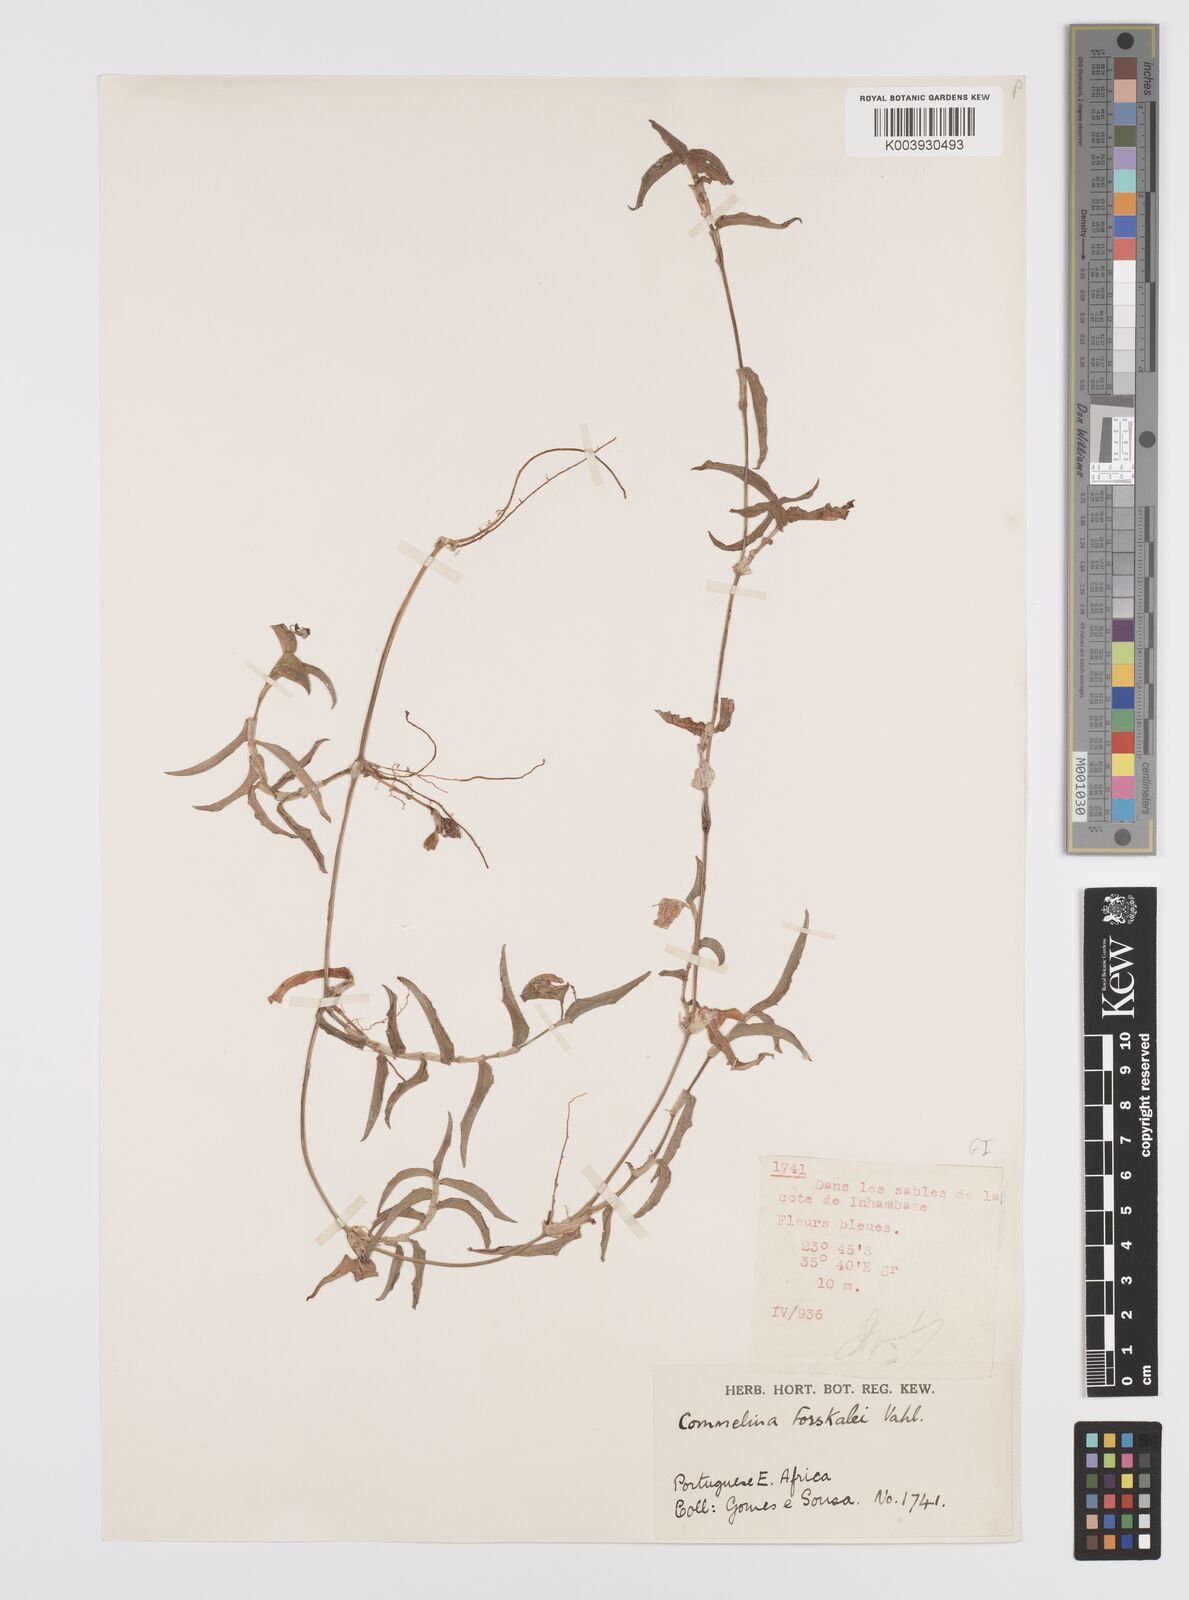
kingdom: Plantae
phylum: Tracheophyta
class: Liliopsida
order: Commelinales
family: Commelinaceae
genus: Commelina
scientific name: Commelina forskaolii
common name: Rat's ear
